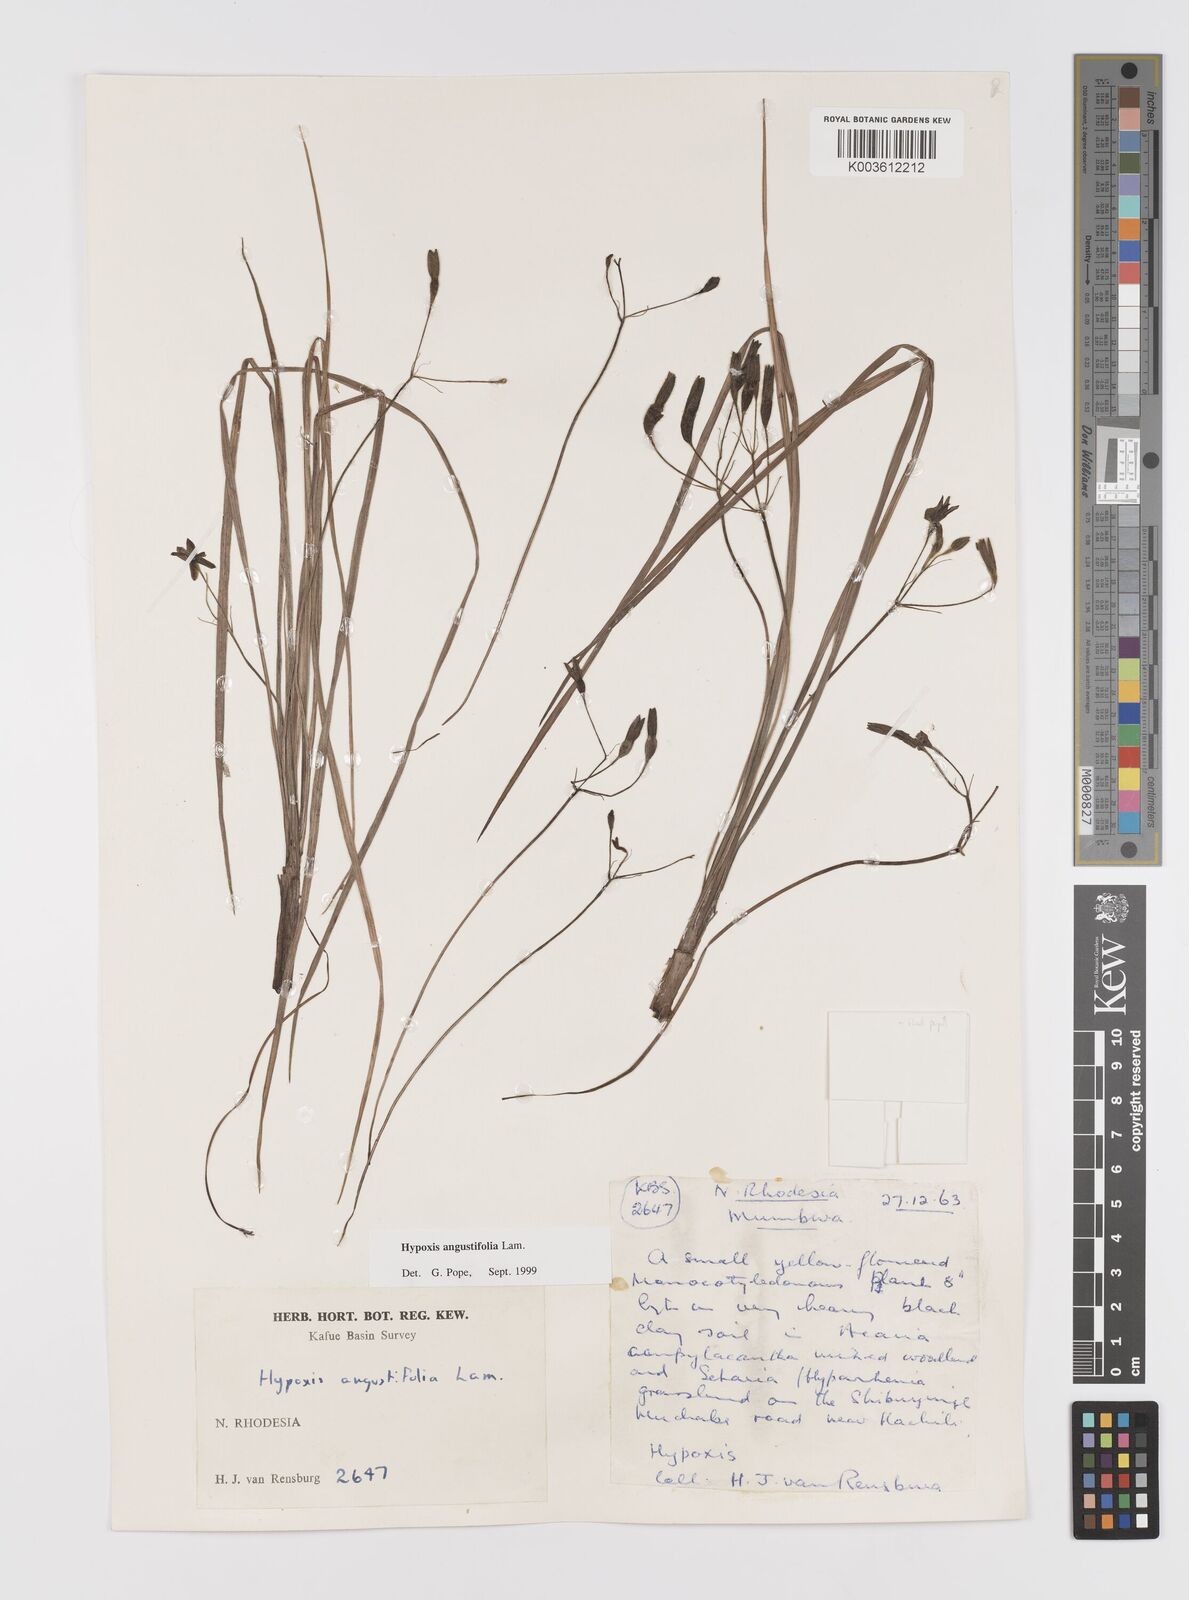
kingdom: Plantae
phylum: Tracheophyta
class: Liliopsida
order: Asparagales
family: Hypoxidaceae
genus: Hypoxis
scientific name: Hypoxis angustifolia
